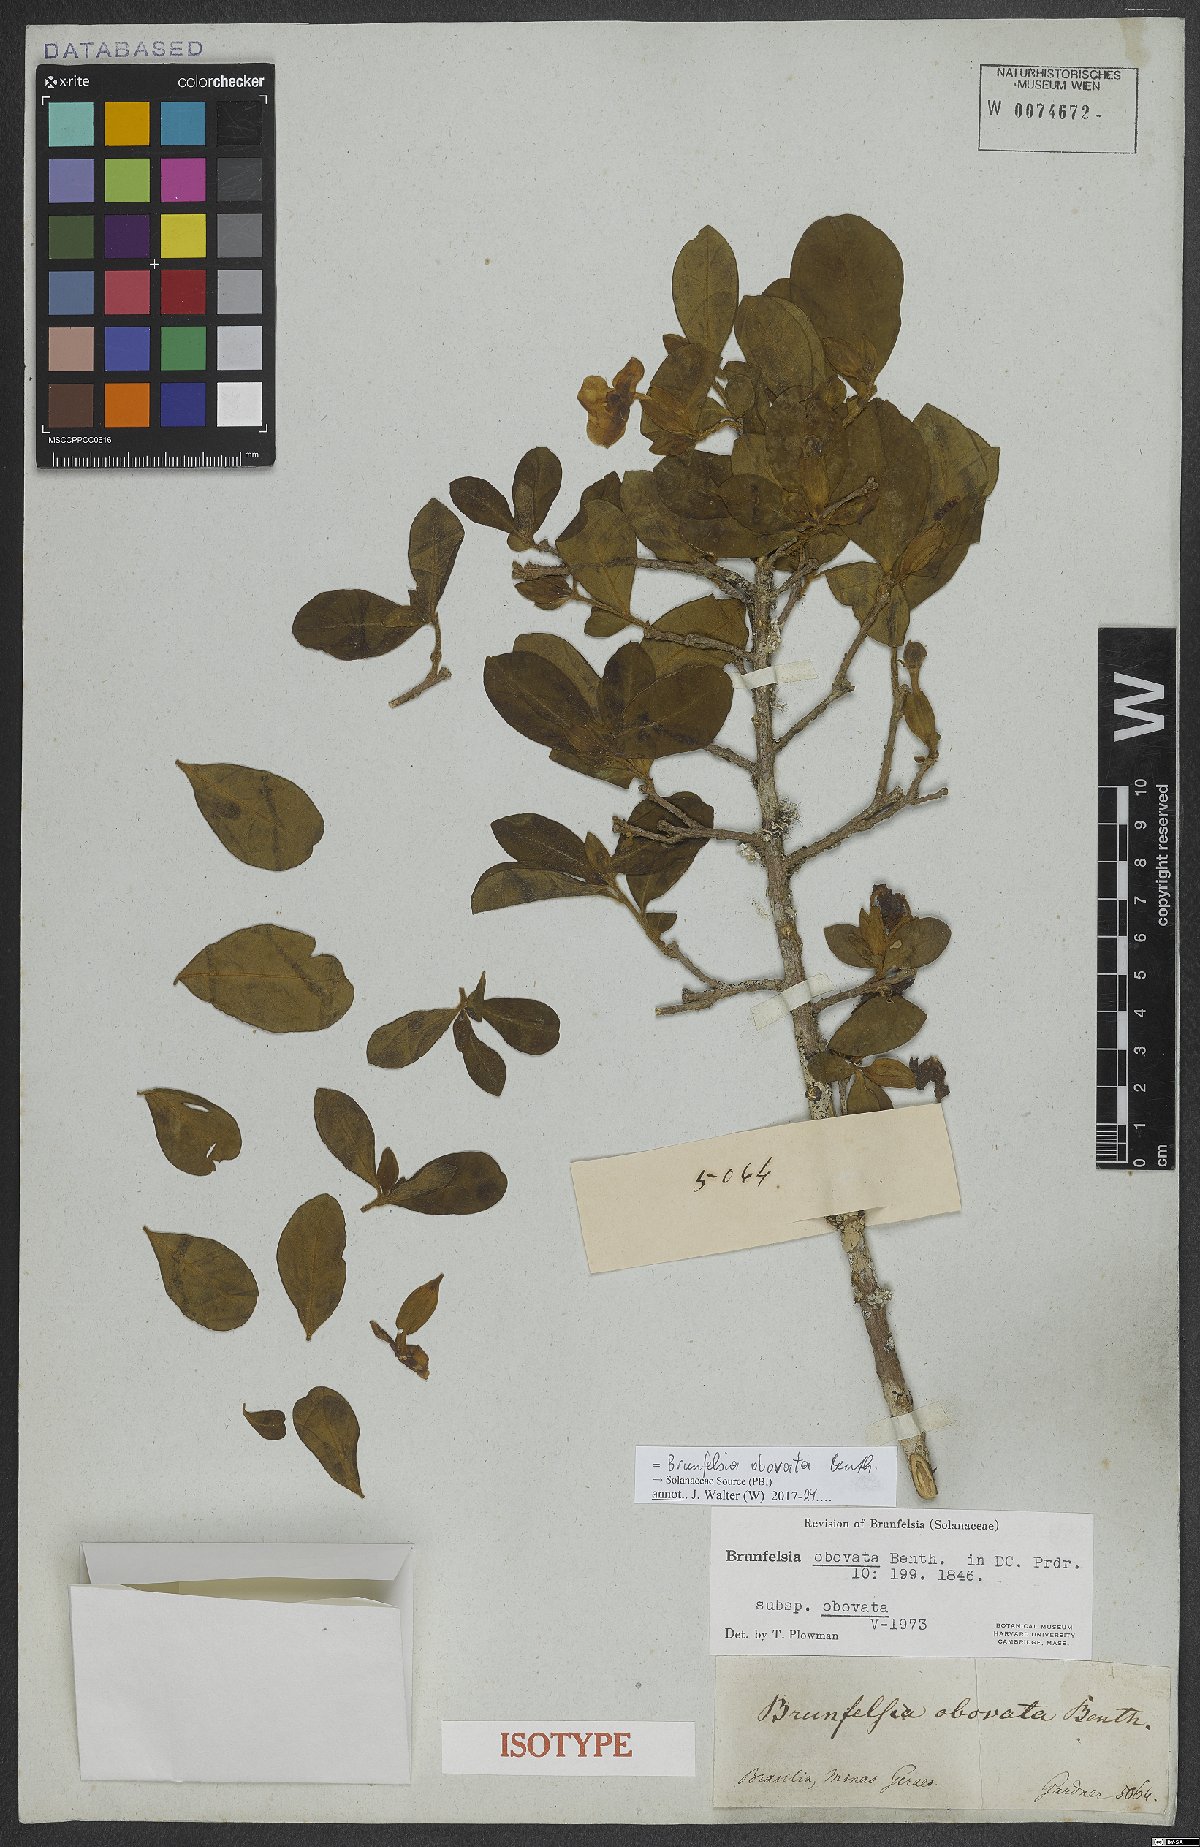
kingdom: Plantae
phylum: Tracheophyta
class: Magnoliopsida
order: Solanales
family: Solanaceae
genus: Brunfelsia
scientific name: Brunfelsia obovata
